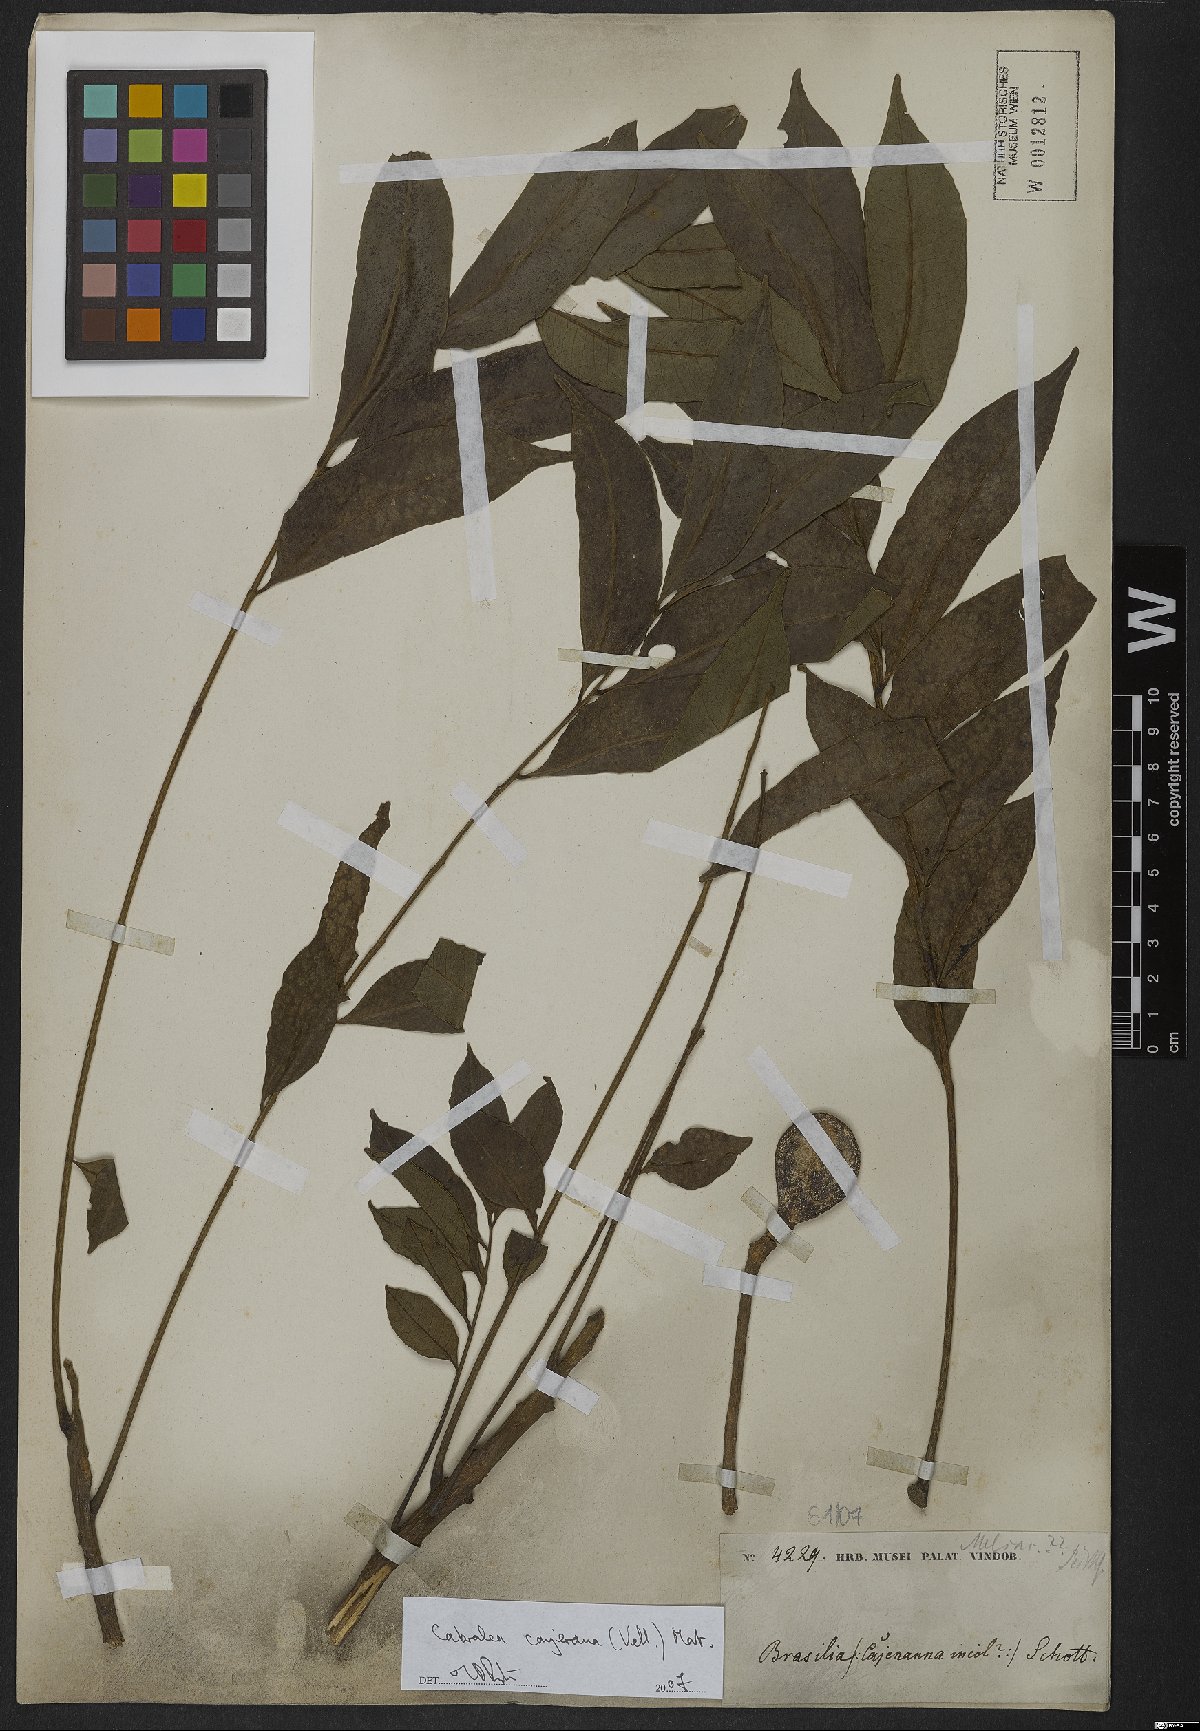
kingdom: Plantae
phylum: Tracheophyta
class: Magnoliopsida
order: Sapindales
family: Meliaceae
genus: Cabralea
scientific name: Cabralea canjerana
